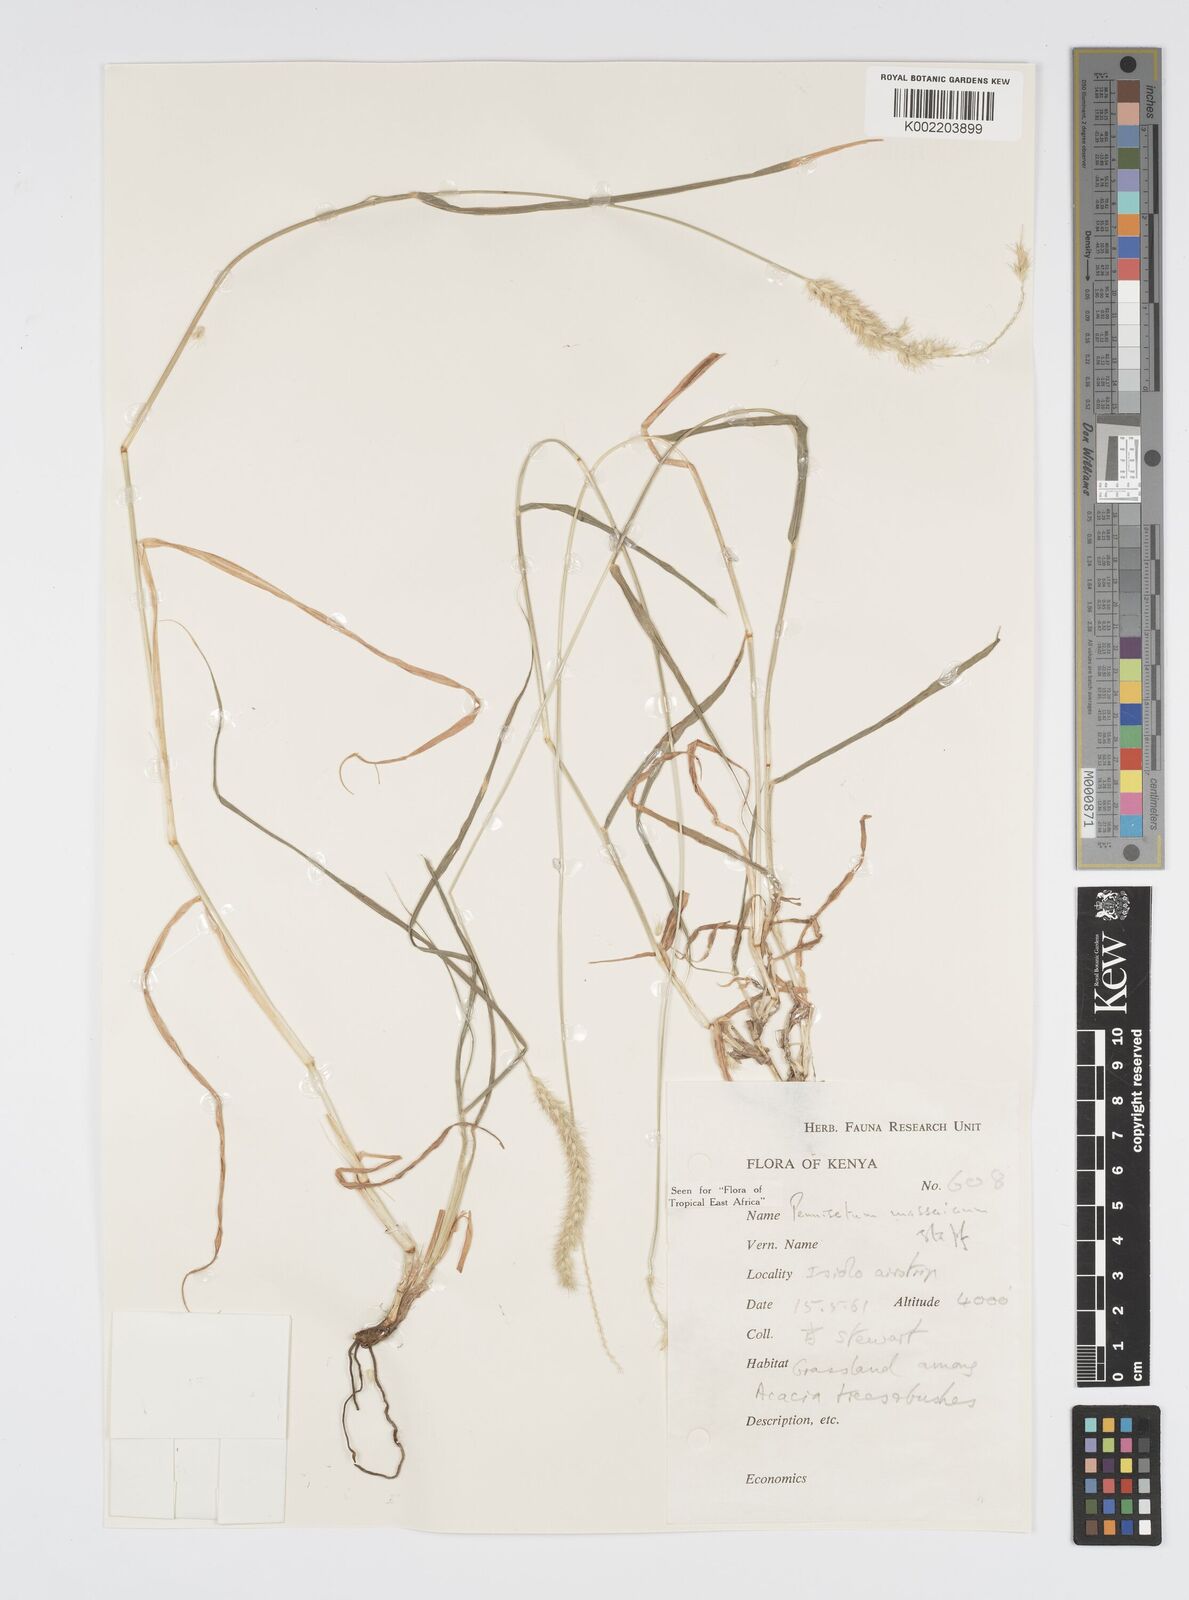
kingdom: Plantae
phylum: Tracheophyta
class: Liliopsida
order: Poales
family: Poaceae
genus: Cenchrus
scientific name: Cenchrus massaicus
